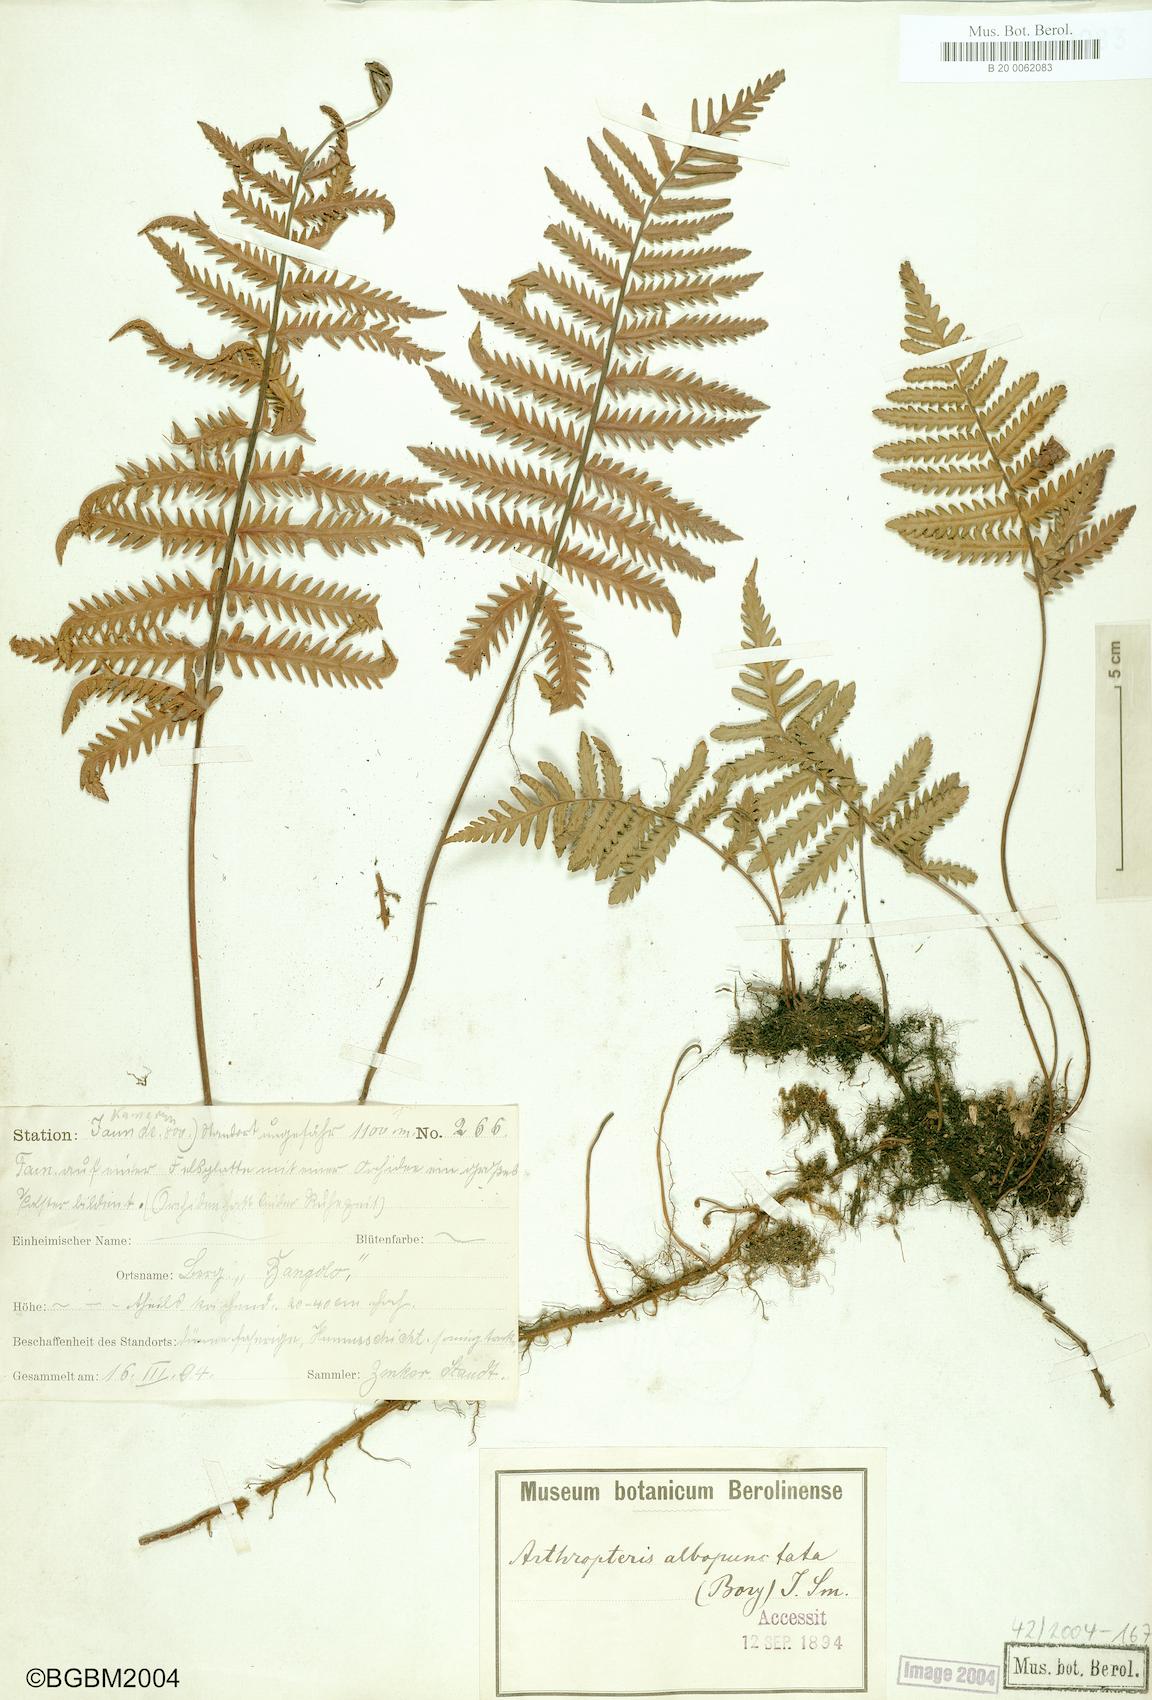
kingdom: Plantae
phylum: Tracheophyta
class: Polypodiopsida
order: Polypodiales
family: Tectariaceae
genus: Arthropteris
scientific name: Arthropteris orientalis
